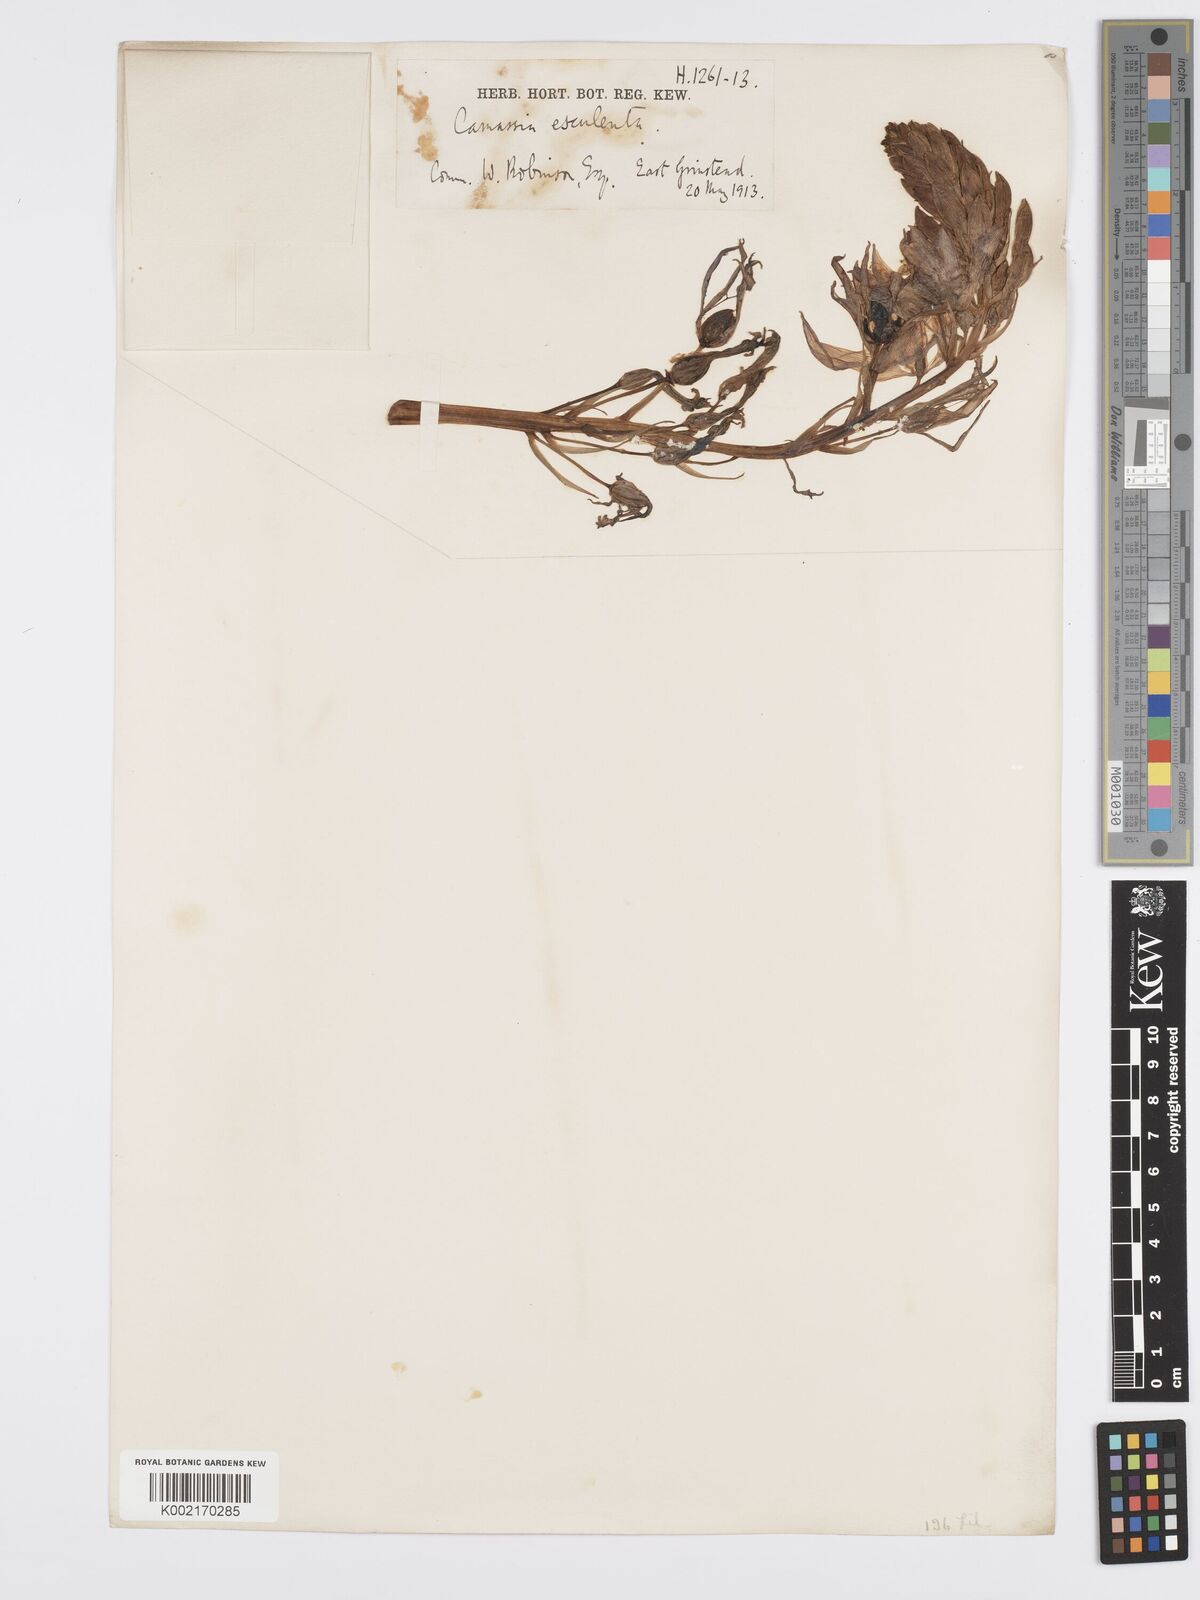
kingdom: Plantae
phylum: Tracheophyta
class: Liliopsida
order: Asparagales
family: Asparagaceae
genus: Camassia
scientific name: Camassia leichtlinii
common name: Leichtlin's camas
